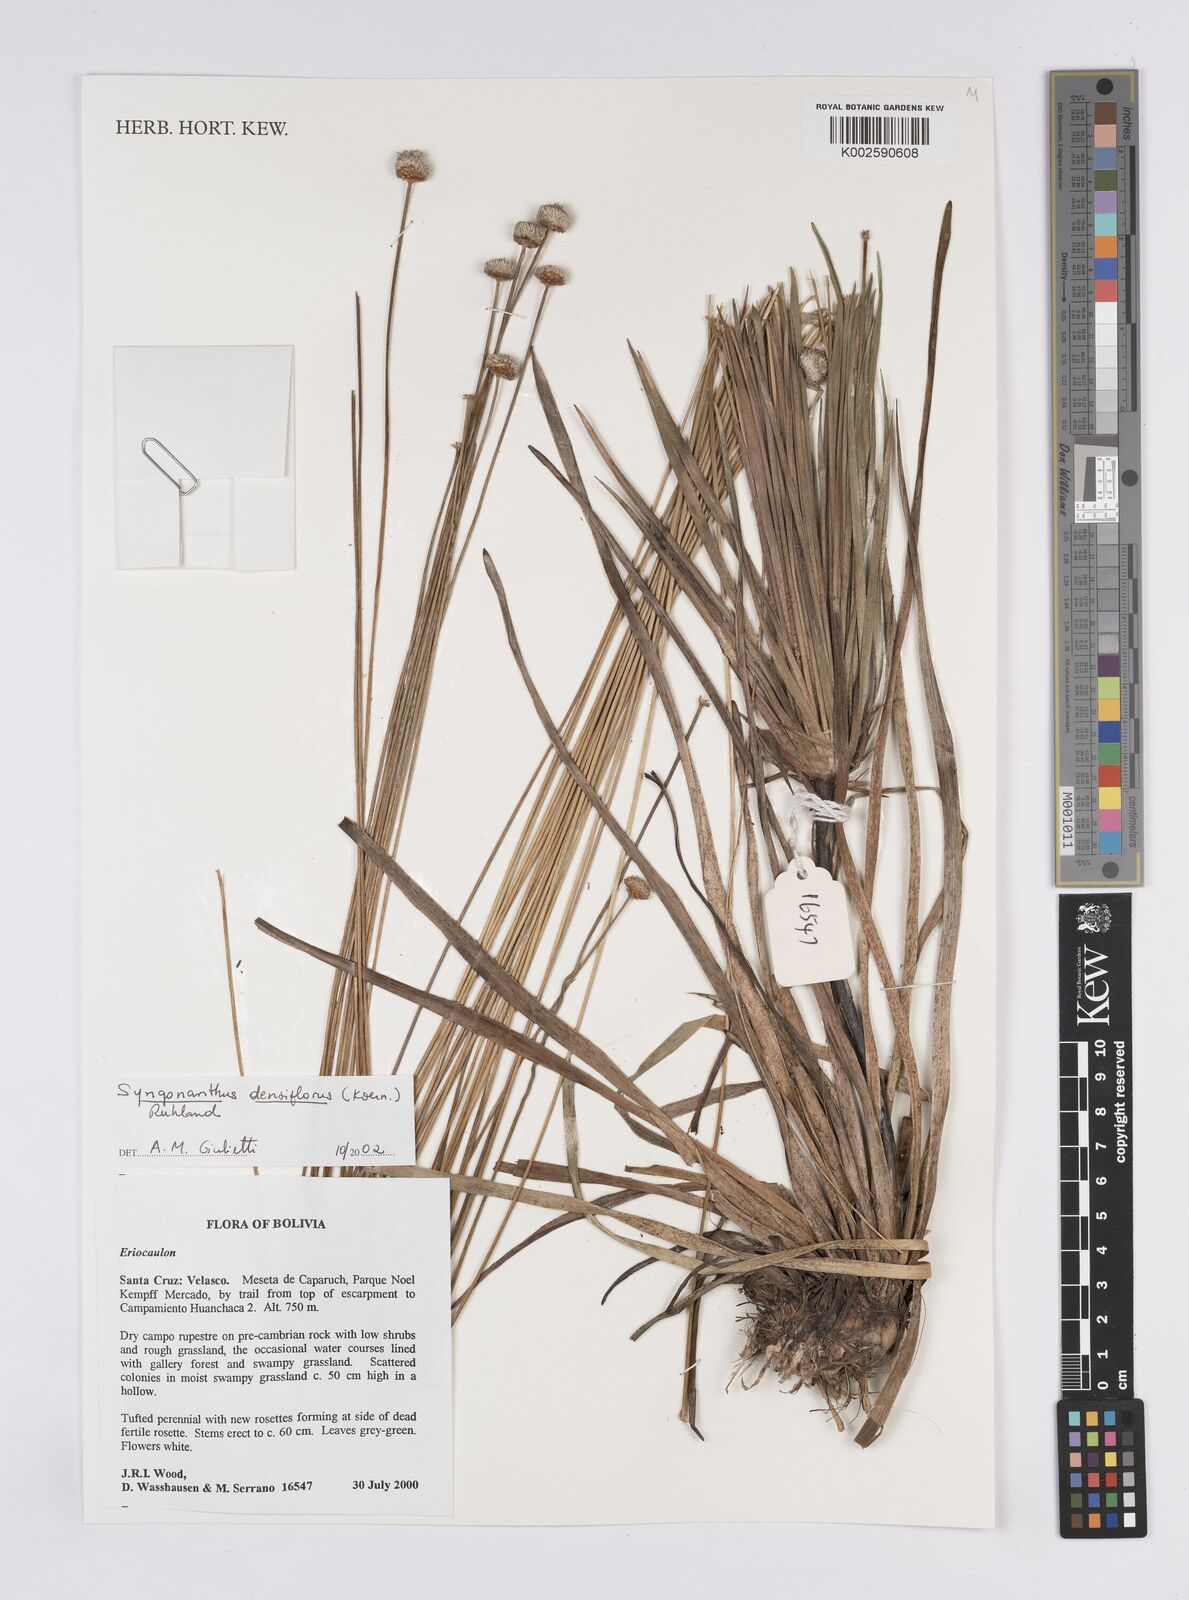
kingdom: Plantae
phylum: Tracheophyta
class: Liliopsida
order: Poales
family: Eriocaulaceae
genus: Syngonanthus
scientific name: Syngonanthus densiflorus
